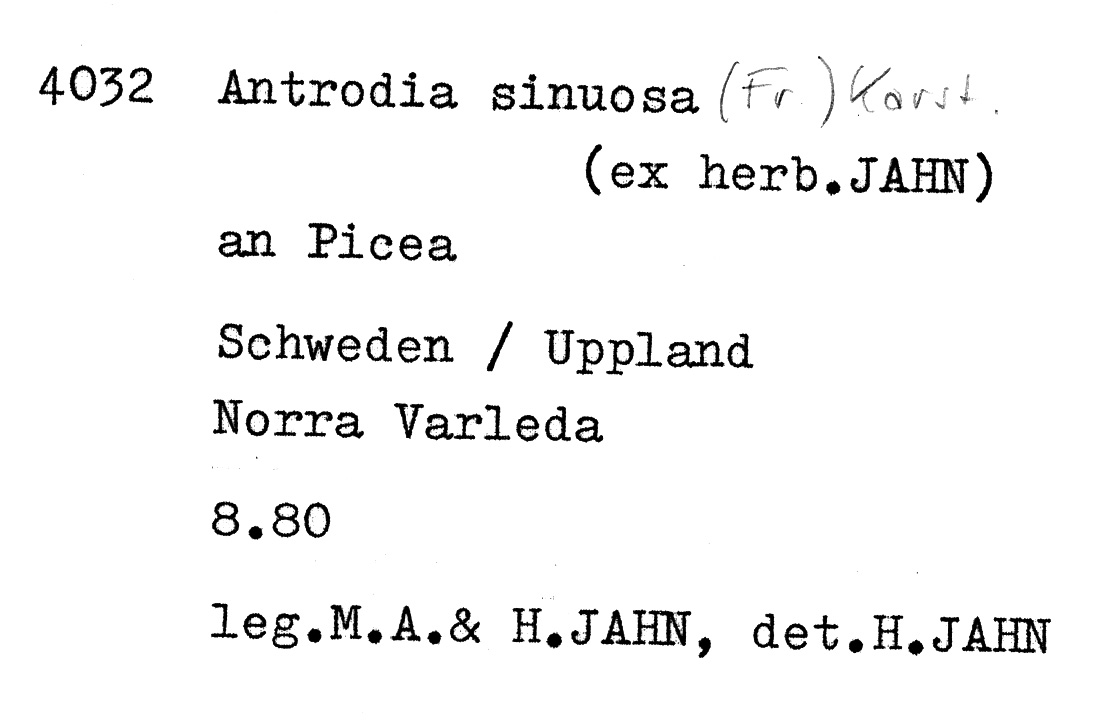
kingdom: Fungi
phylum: Basidiomycota
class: Agaricomycetes
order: Polyporales
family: Fomitopsidaceae
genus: Antrodia
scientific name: Antrodia sinuosa
